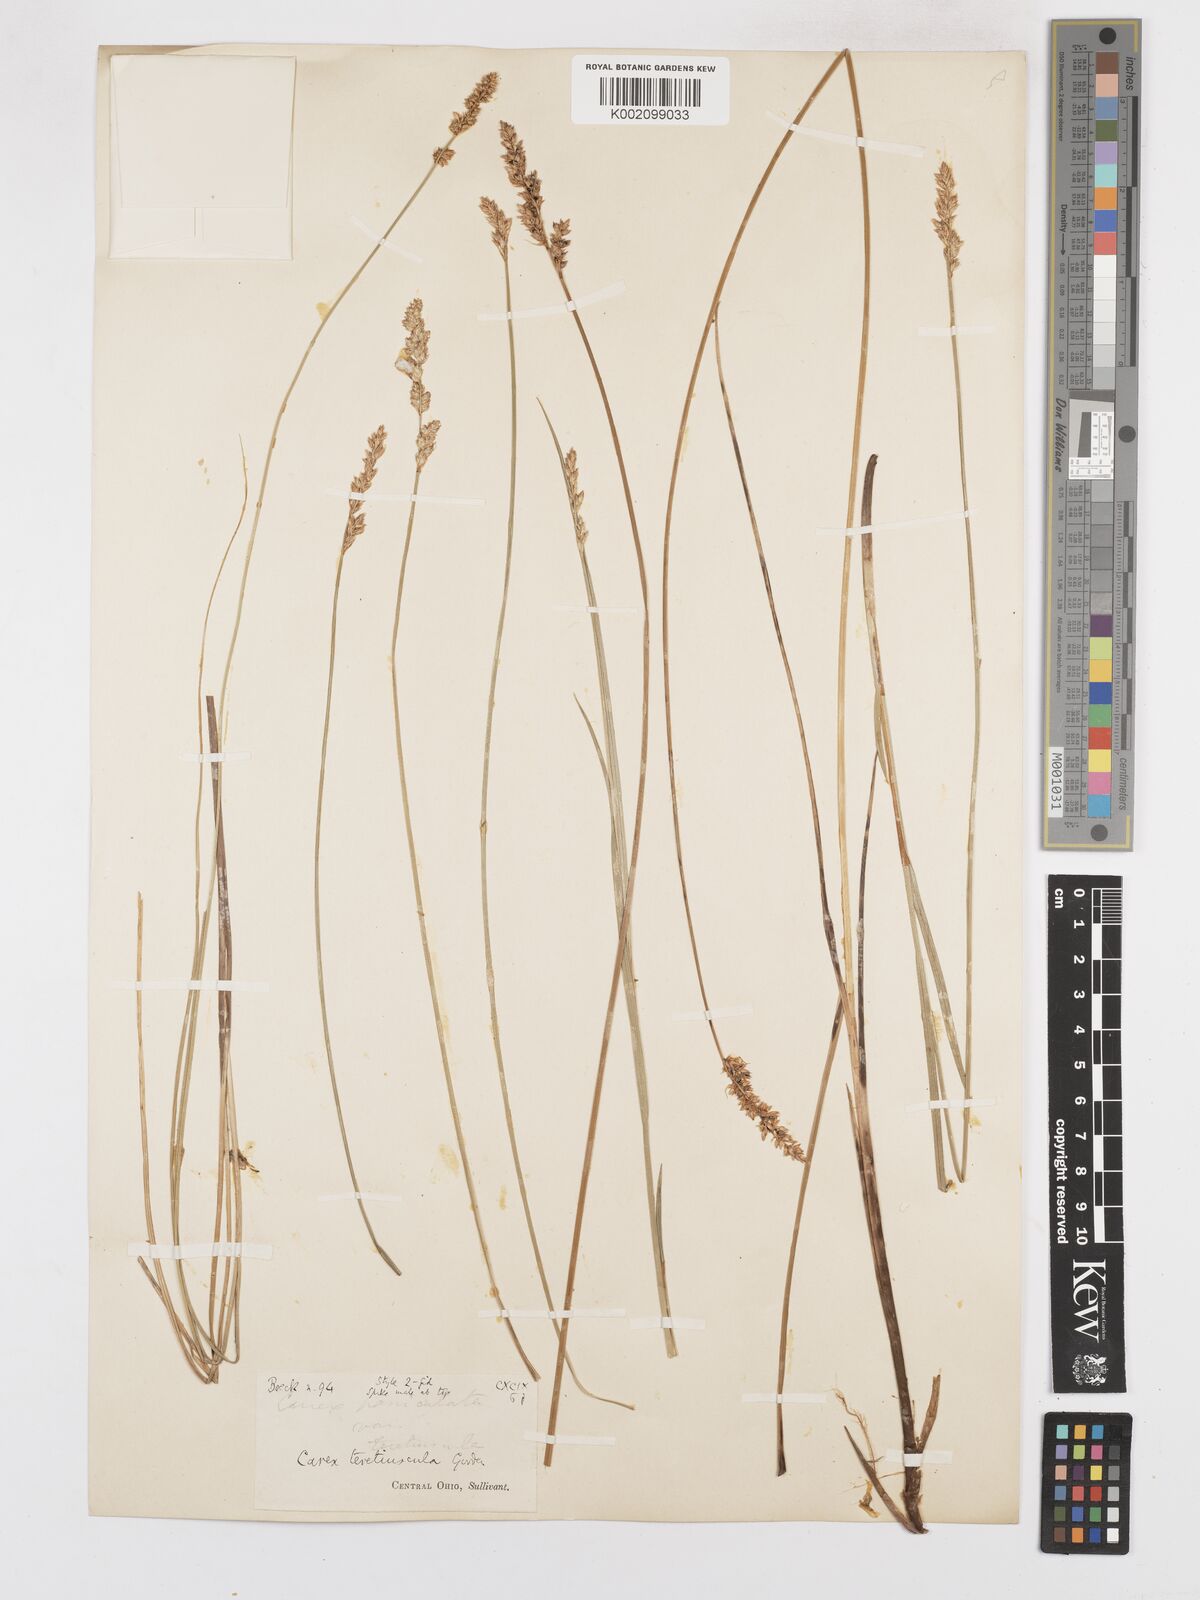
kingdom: Plantae
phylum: Tracheophyta
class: Liliopsida
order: Poales
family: Cyperaceae
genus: Carex
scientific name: Carex diandra
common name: Lesser tussock-sedge
